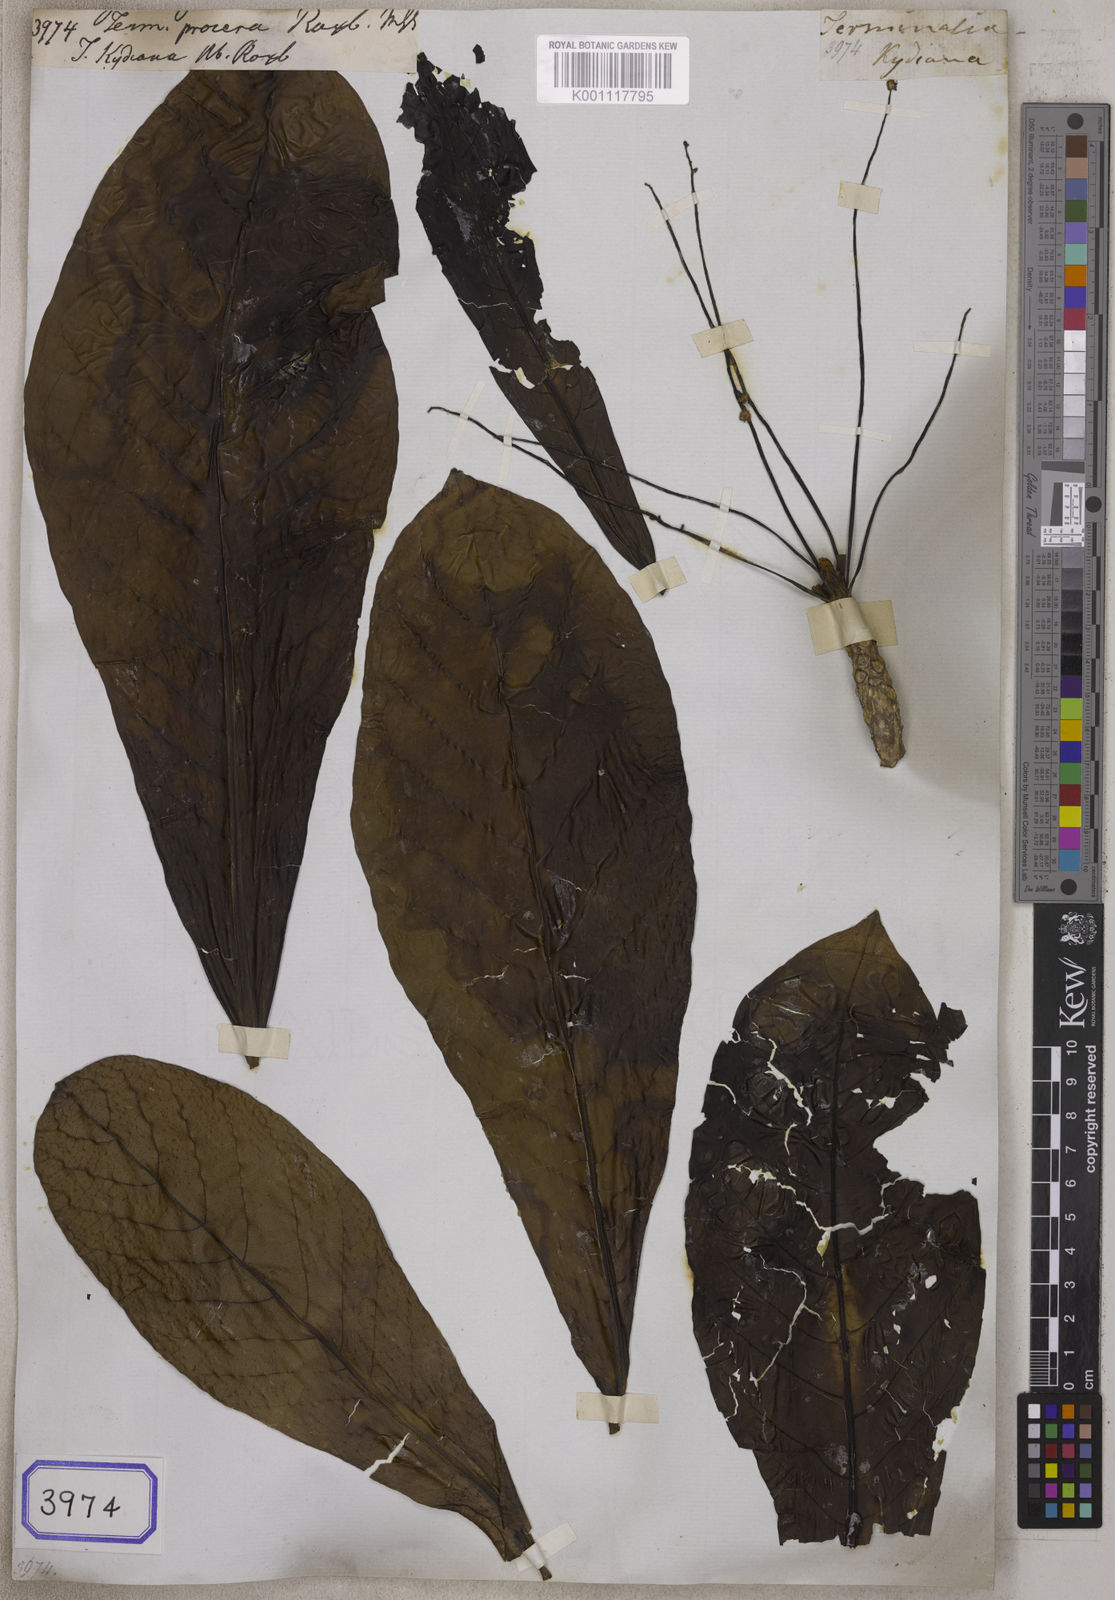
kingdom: Plantae
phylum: Tracheophyta
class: Magnoliopsida
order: Myrtales
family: Combretaceae
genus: Terminalia
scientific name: Terminalia procera
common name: White bombway
